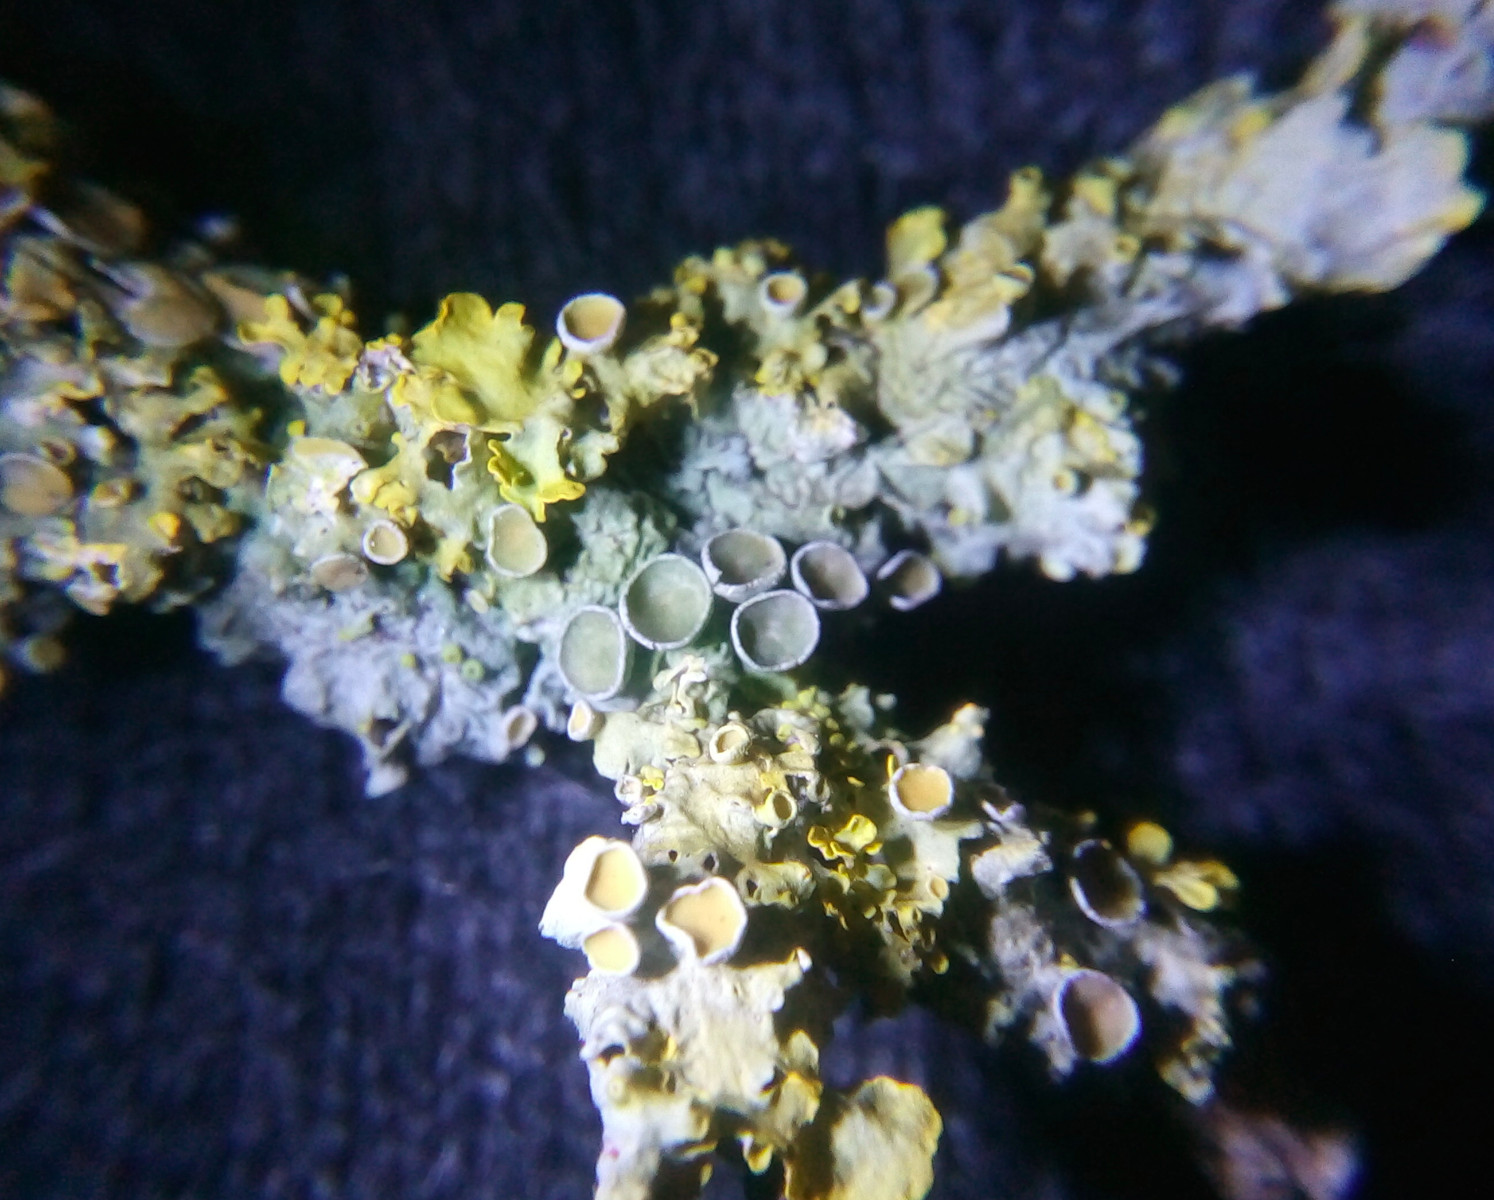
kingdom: Fungi
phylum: Ascomycota
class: Lecanoromycetes
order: Teloschistales
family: Teloschistaceae
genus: Xanthoria
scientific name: Xanthoria parietina
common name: almindelig væggelav
